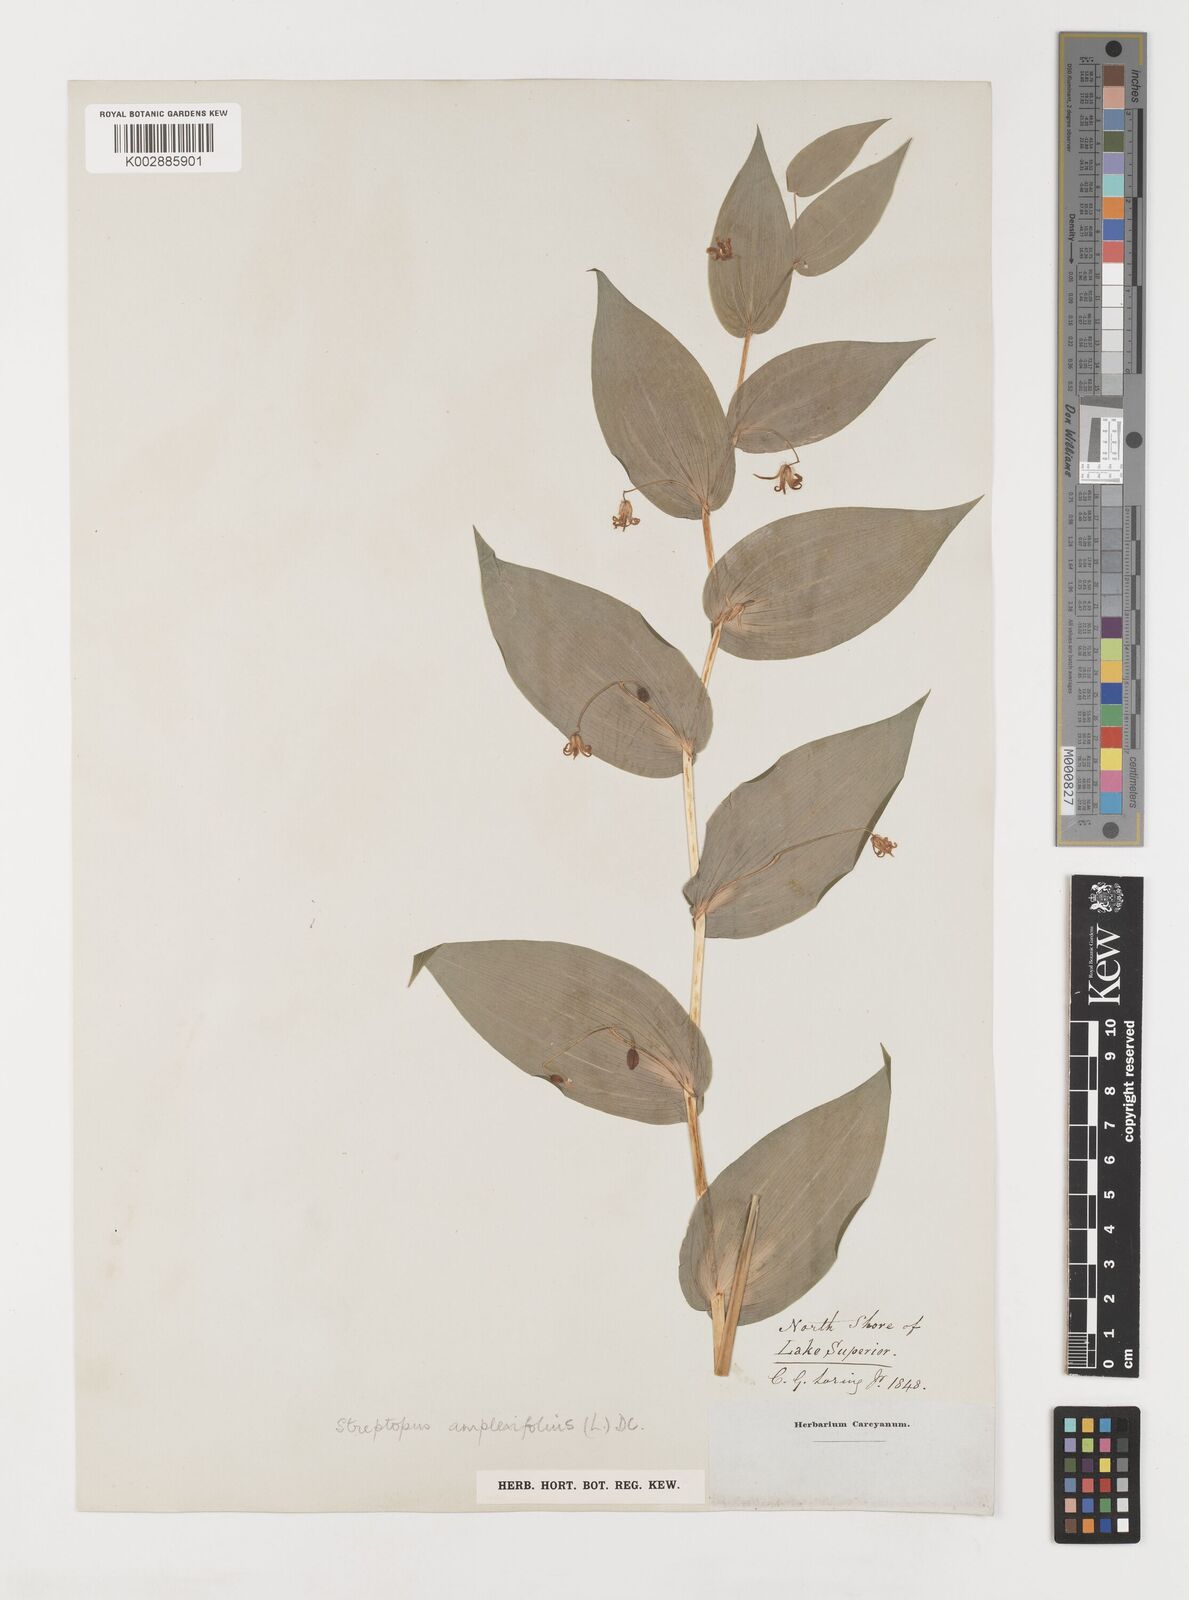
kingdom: Plantae
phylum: Tracheophyta
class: Liliopsida
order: Liliales
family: Liliaceae
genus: Streptopus
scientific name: Streptopus amplexifolius
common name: Clasp twisted stalk
